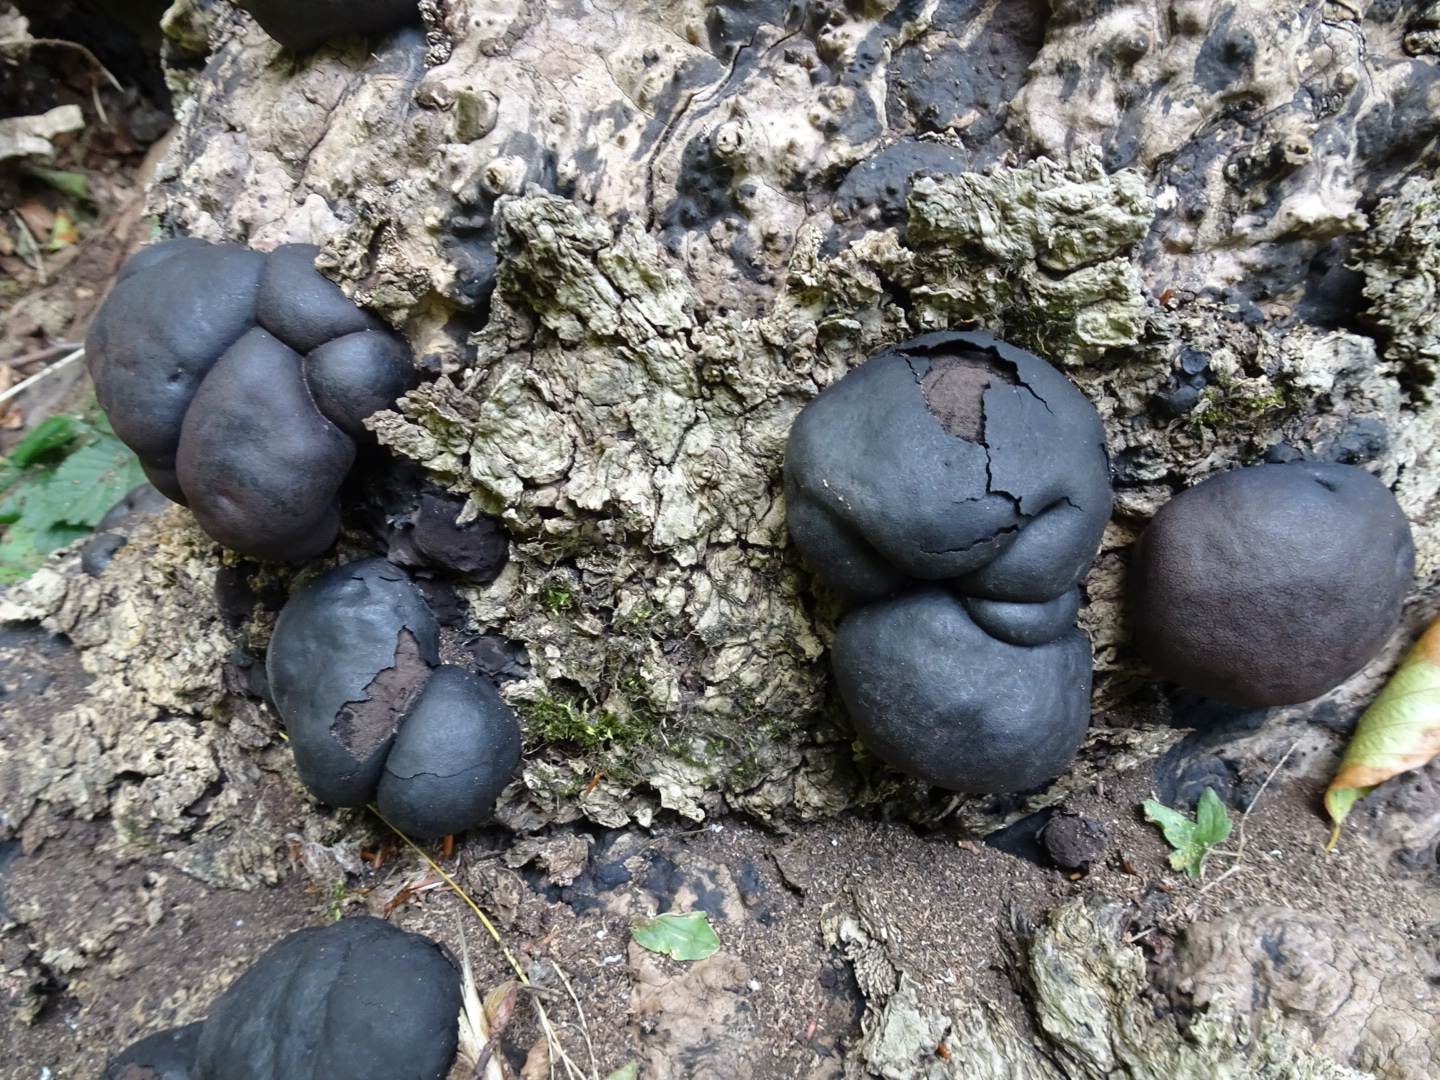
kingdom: Fungi
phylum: Ascomycota
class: Sordariomycetes
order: Xylariales
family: Hypoxylaceae
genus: Daldinia
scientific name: Daldinia concentrica
